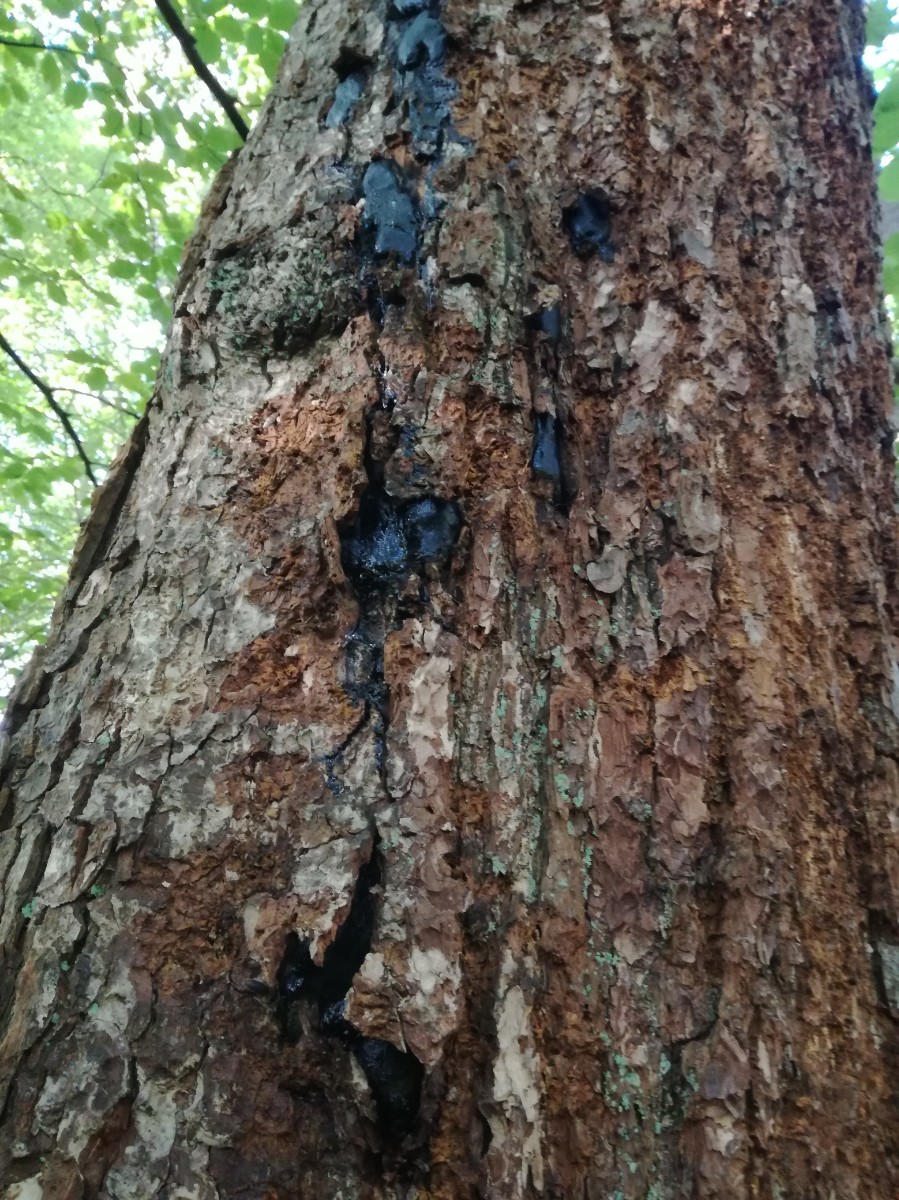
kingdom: Fungi
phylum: Ascomycota
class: Sordariomycetes
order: Boliniales
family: Boliniaceae
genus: Camarops
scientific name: Camarops polysperma
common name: elle-kulsnegl
